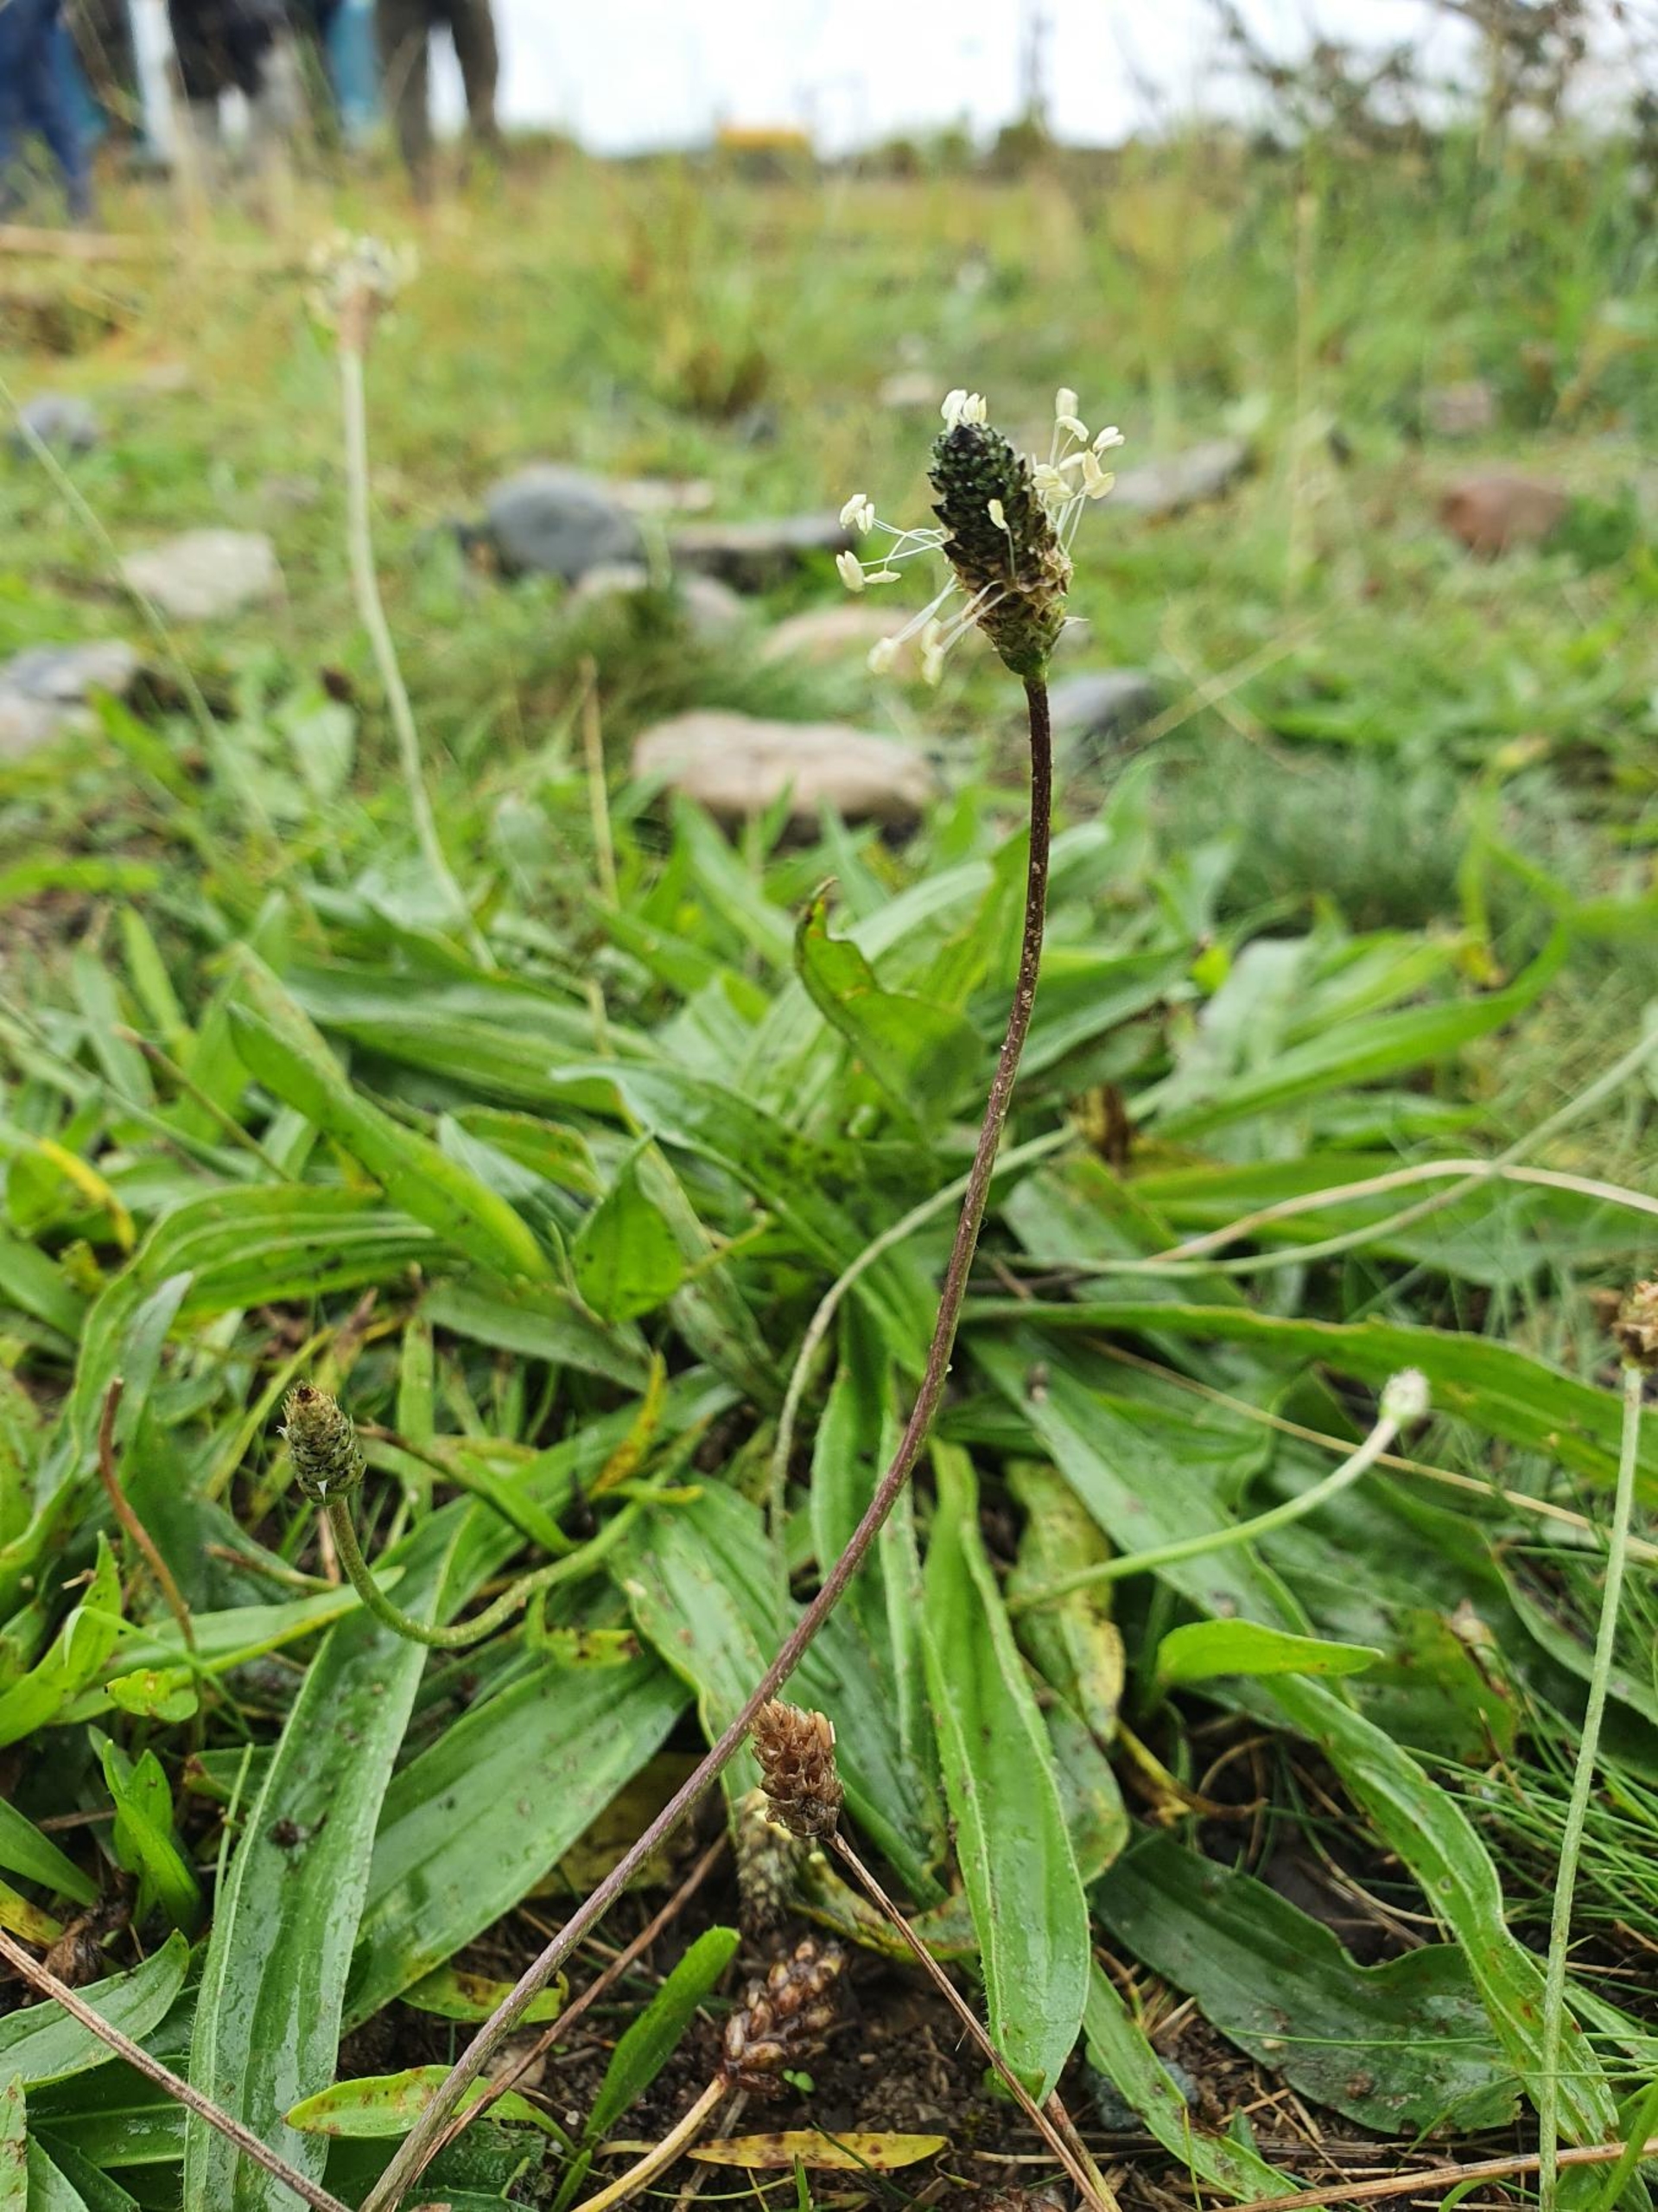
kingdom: Plantae
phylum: Tracheophyta
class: Magnoliopsida
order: Lamiales
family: Plantaginaceae
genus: Plantago
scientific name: Plantago lanceolata
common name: Lancet-vejbred
